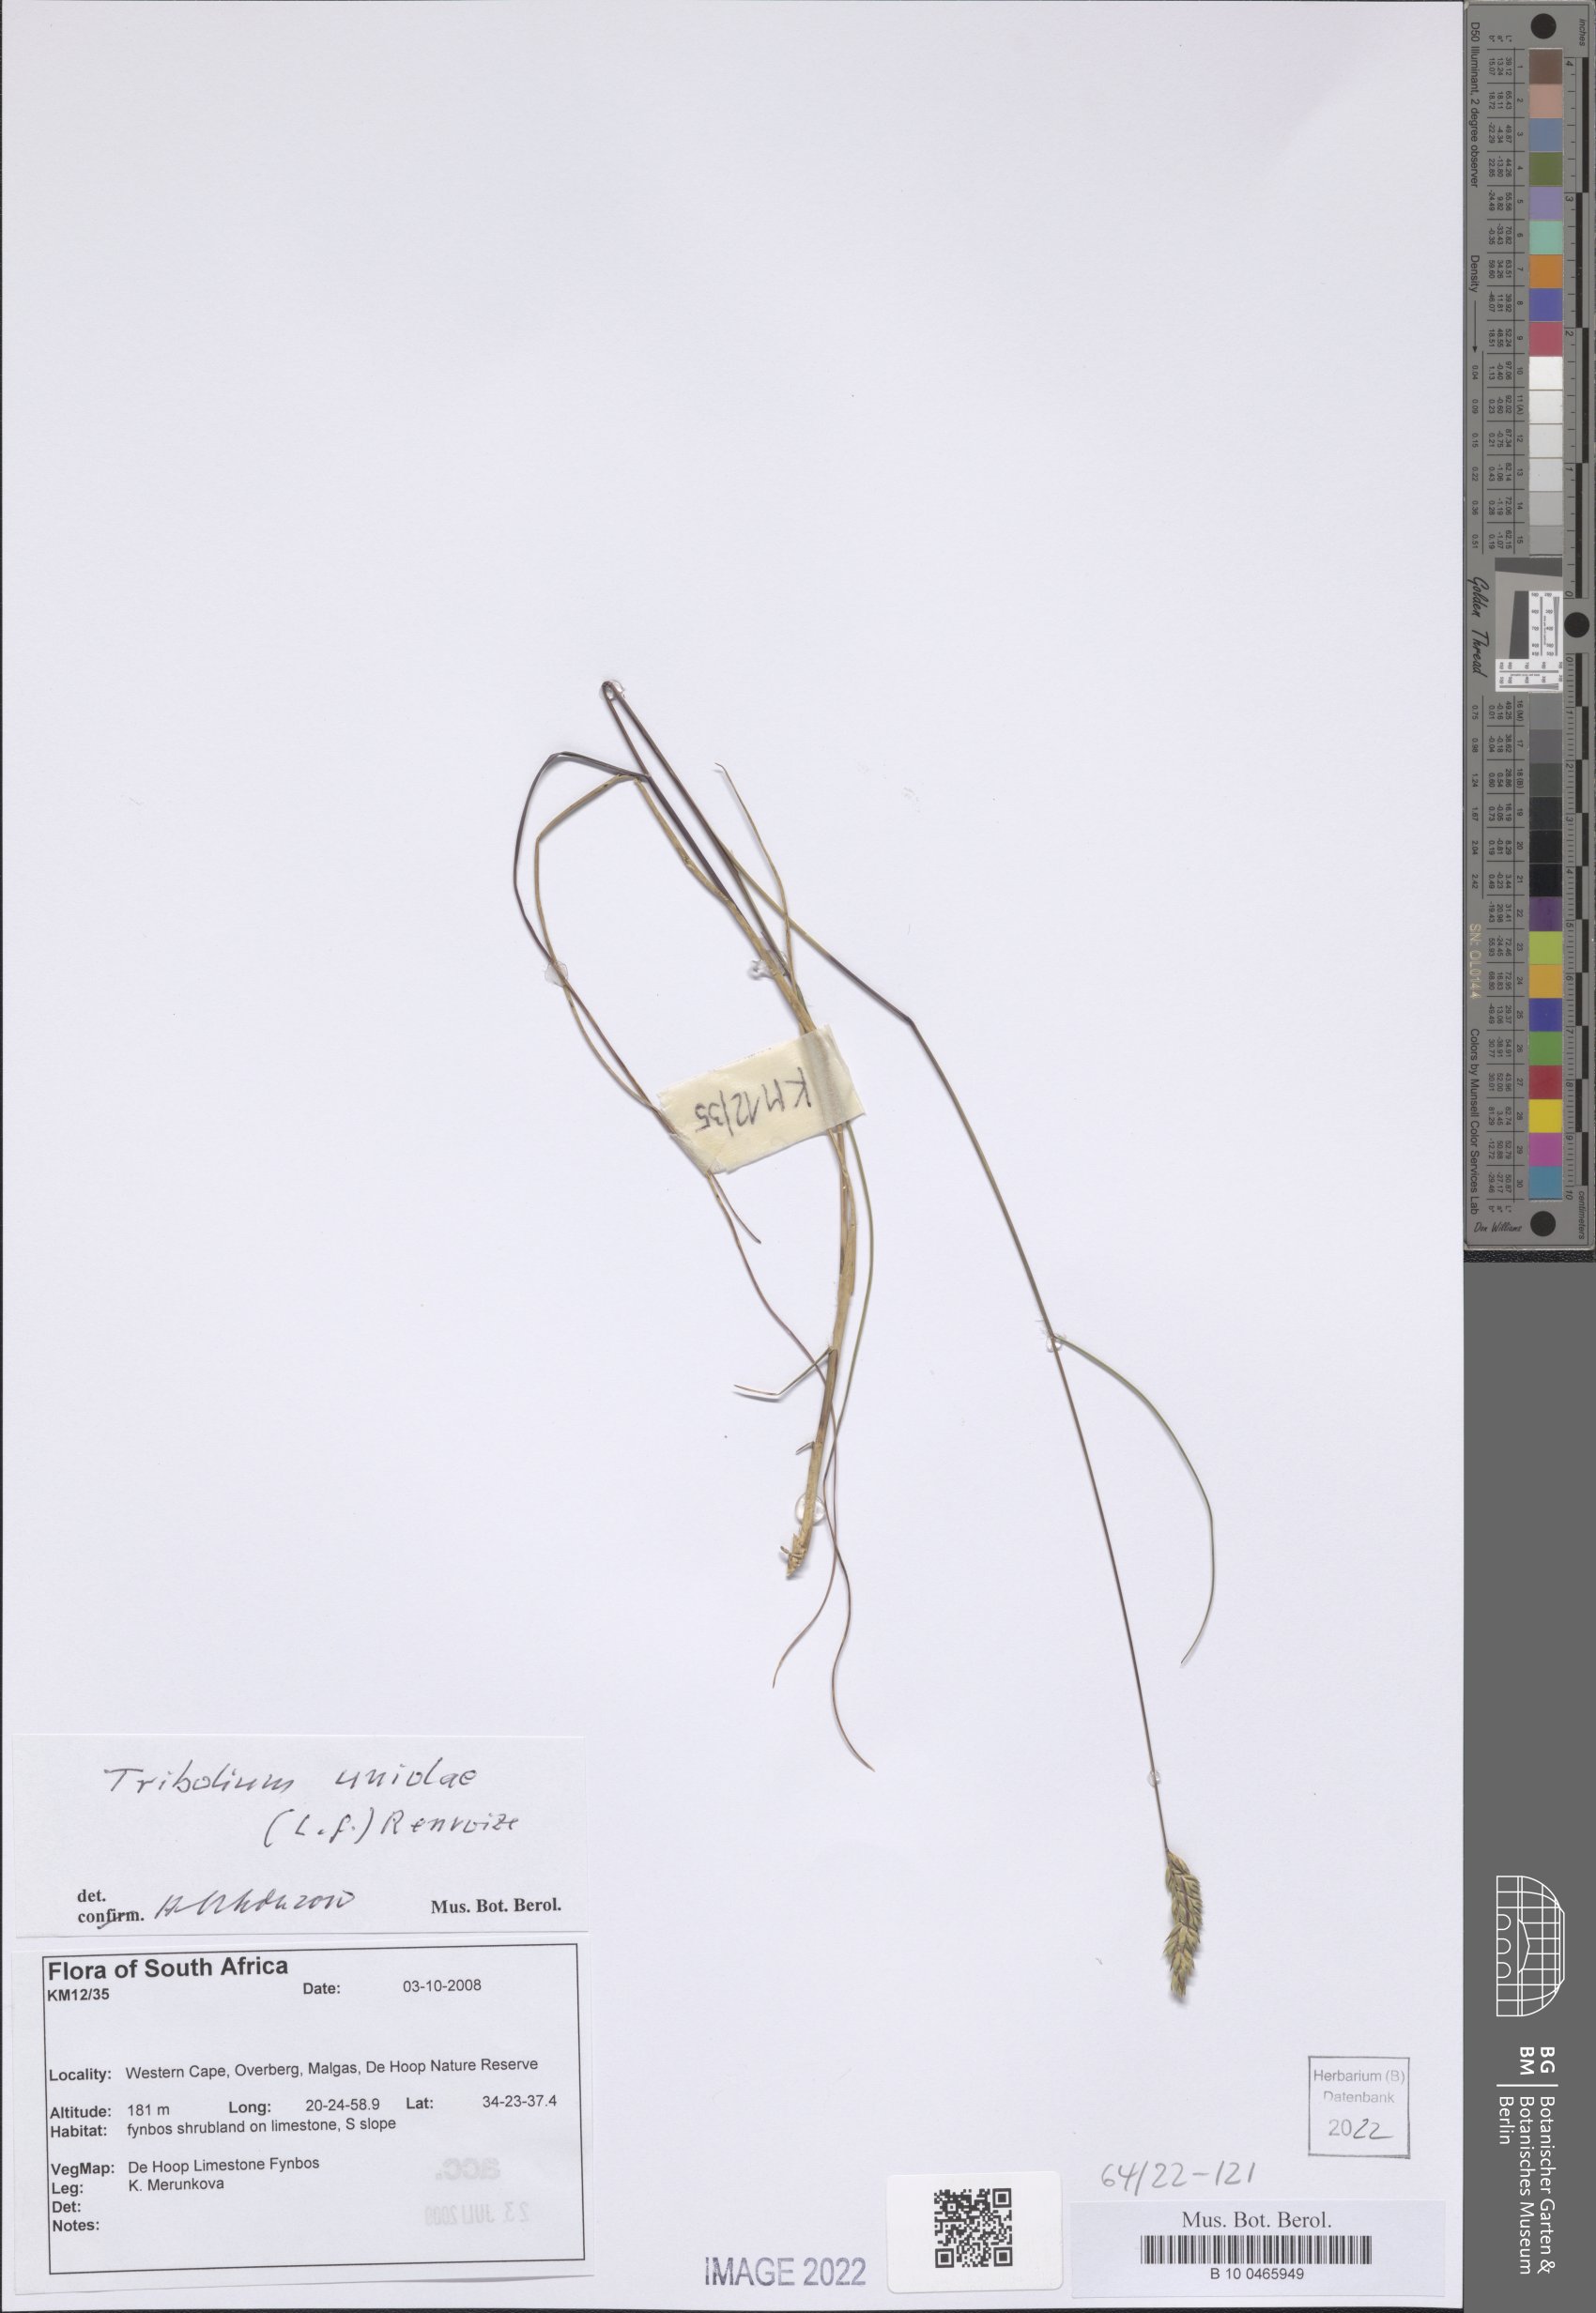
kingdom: Plantae
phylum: Tracheophyta
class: Liliopsida
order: Poales
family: Poaceae
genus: Tribolium
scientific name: Tribolium uniolae
